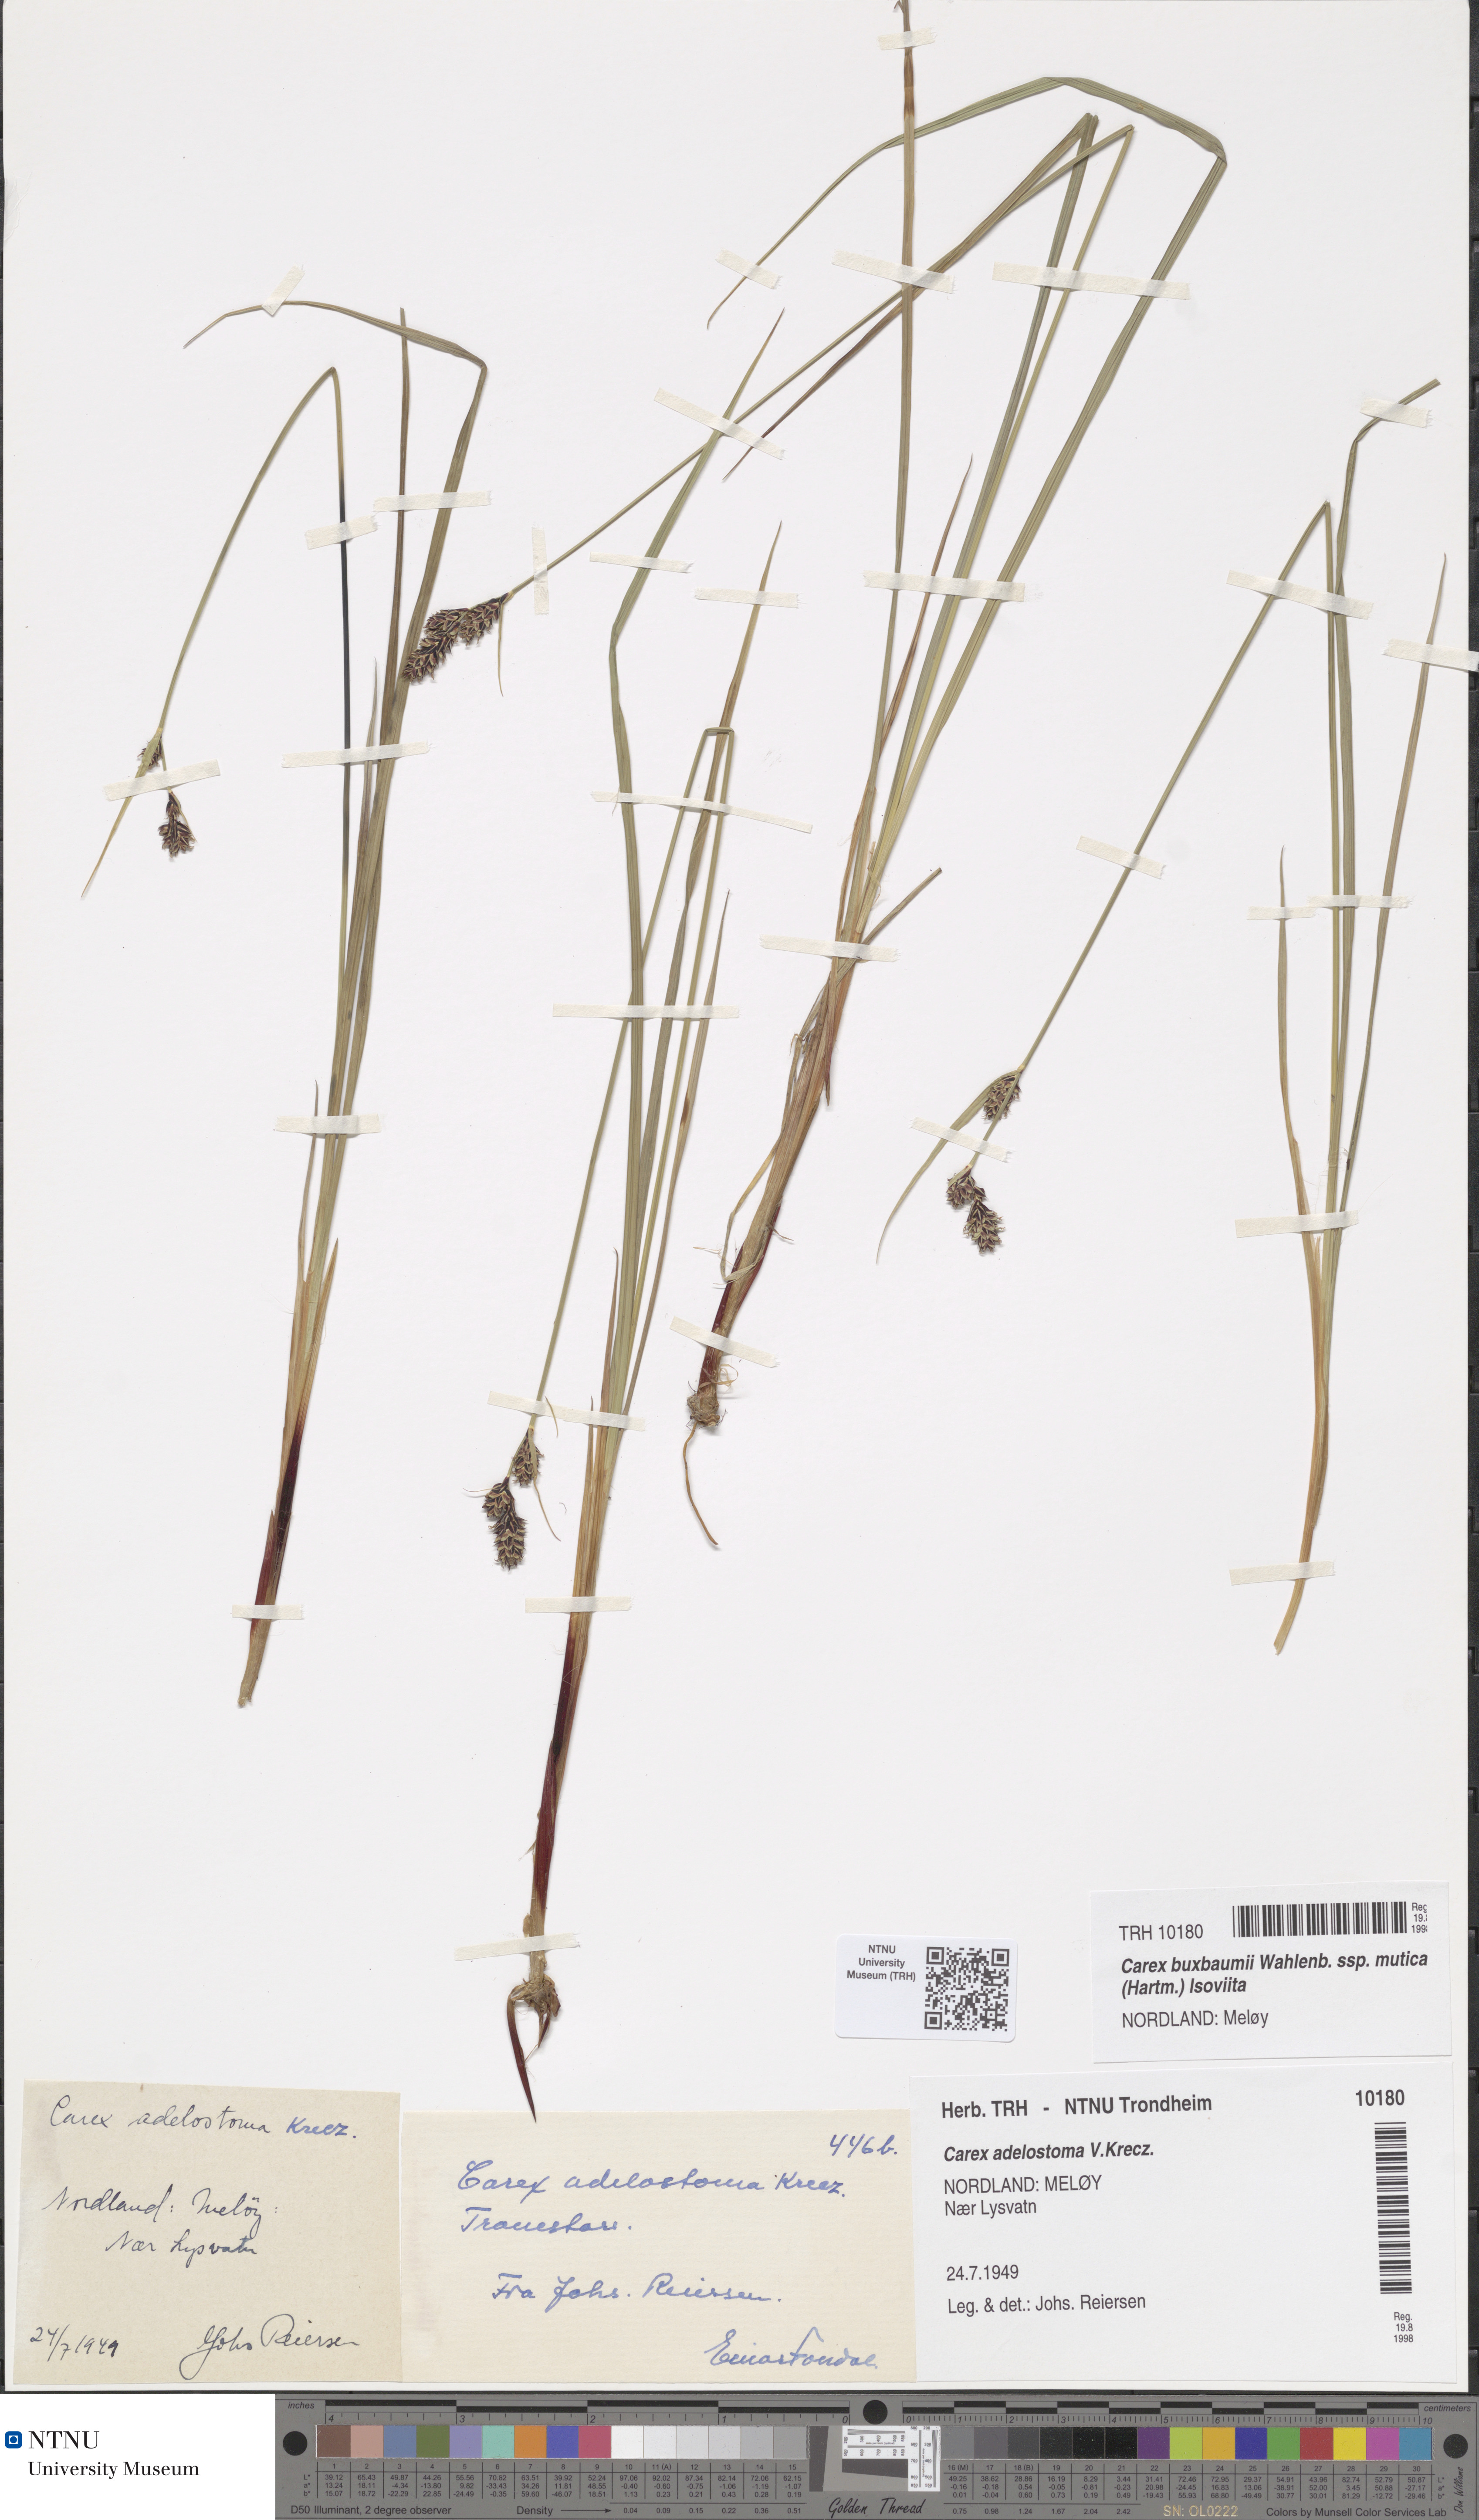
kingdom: Plantae
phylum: Tracheophyta
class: Liliopsida
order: Poales
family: Cyperaceae
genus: Carex
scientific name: Carex adelostoma
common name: Circumpolar sedge
